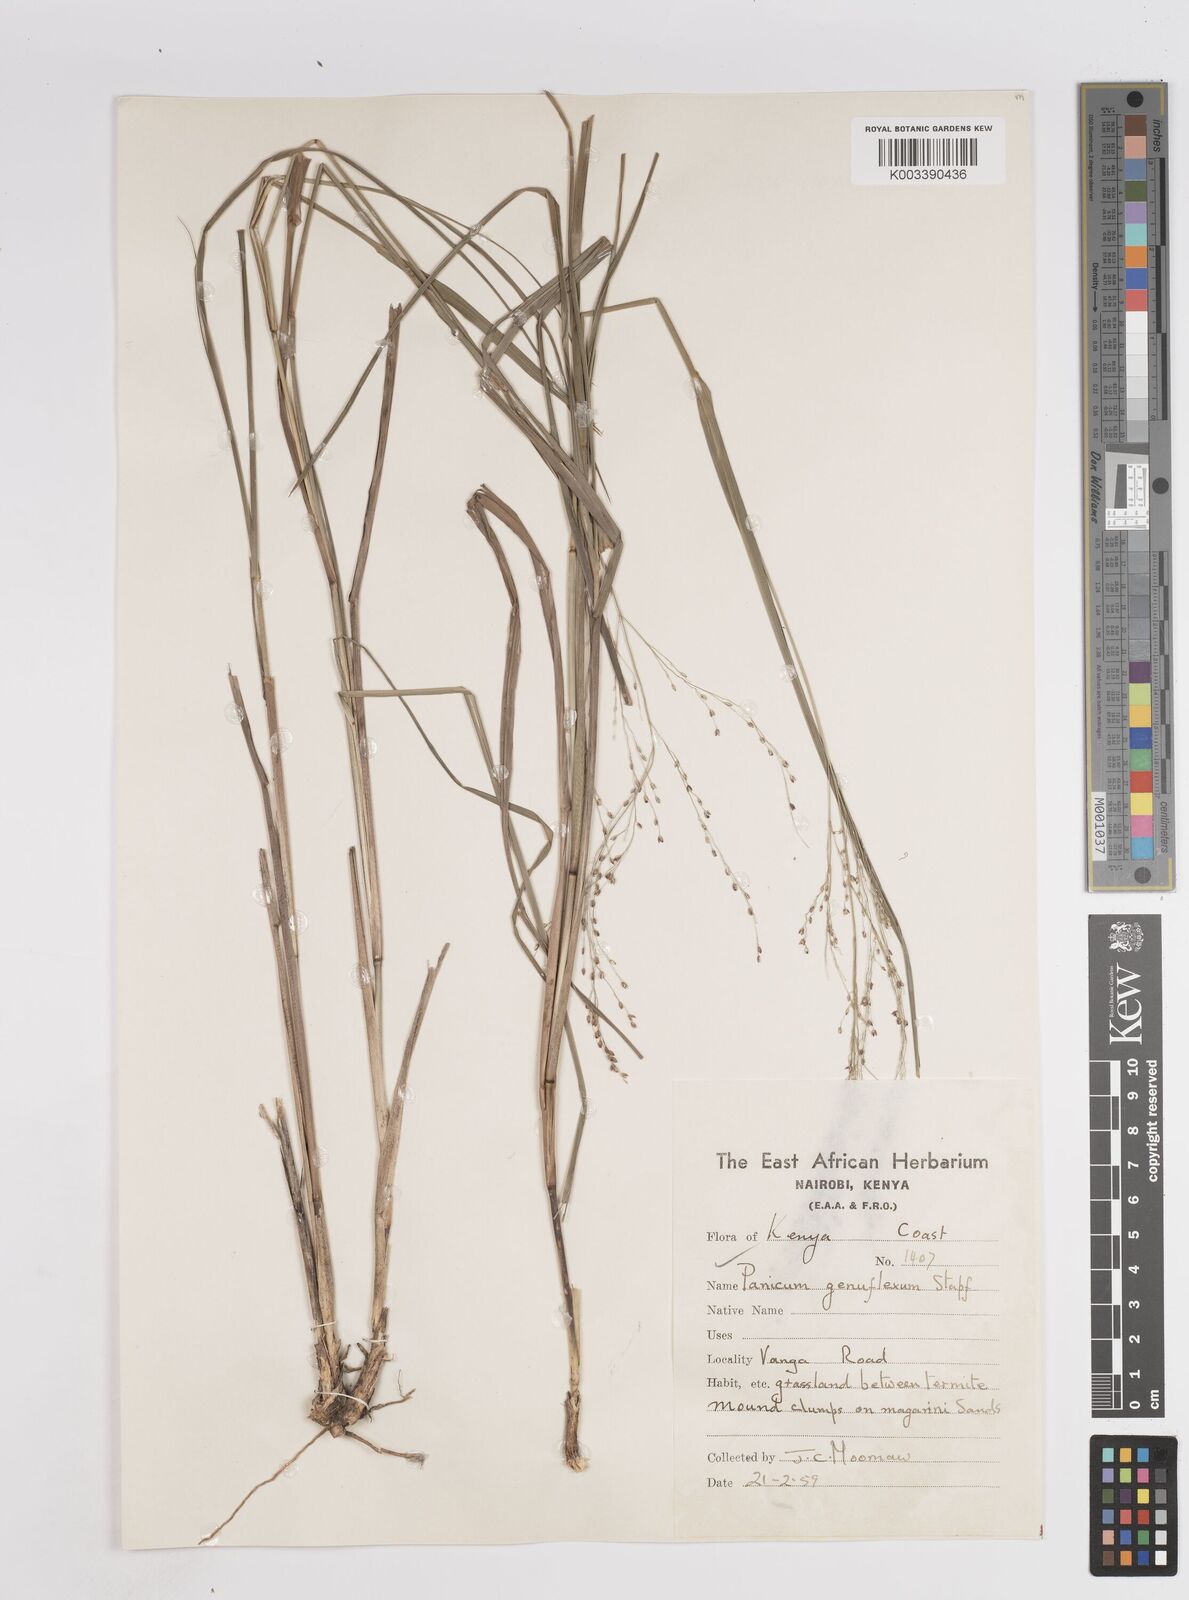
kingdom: Plantae
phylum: Tracheophyta
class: Liliopsida
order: Poales
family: Poaceae
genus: Panicum
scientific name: Panicum genuflexum
